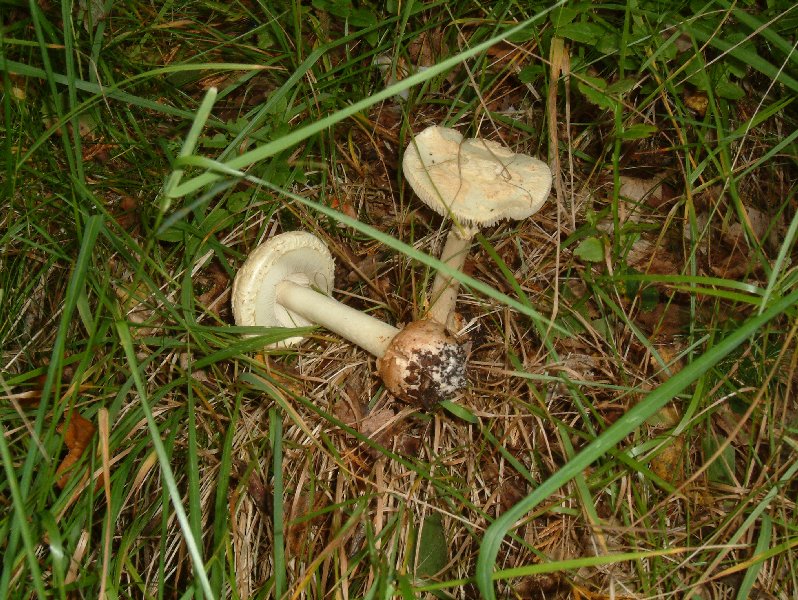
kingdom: Fungi
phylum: Basidiomycota
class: Agaricomycetes
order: Agaricales
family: Amanitaceae
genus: Amanita
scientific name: Amanita citrina
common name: kugleknoldet fluesvamp
